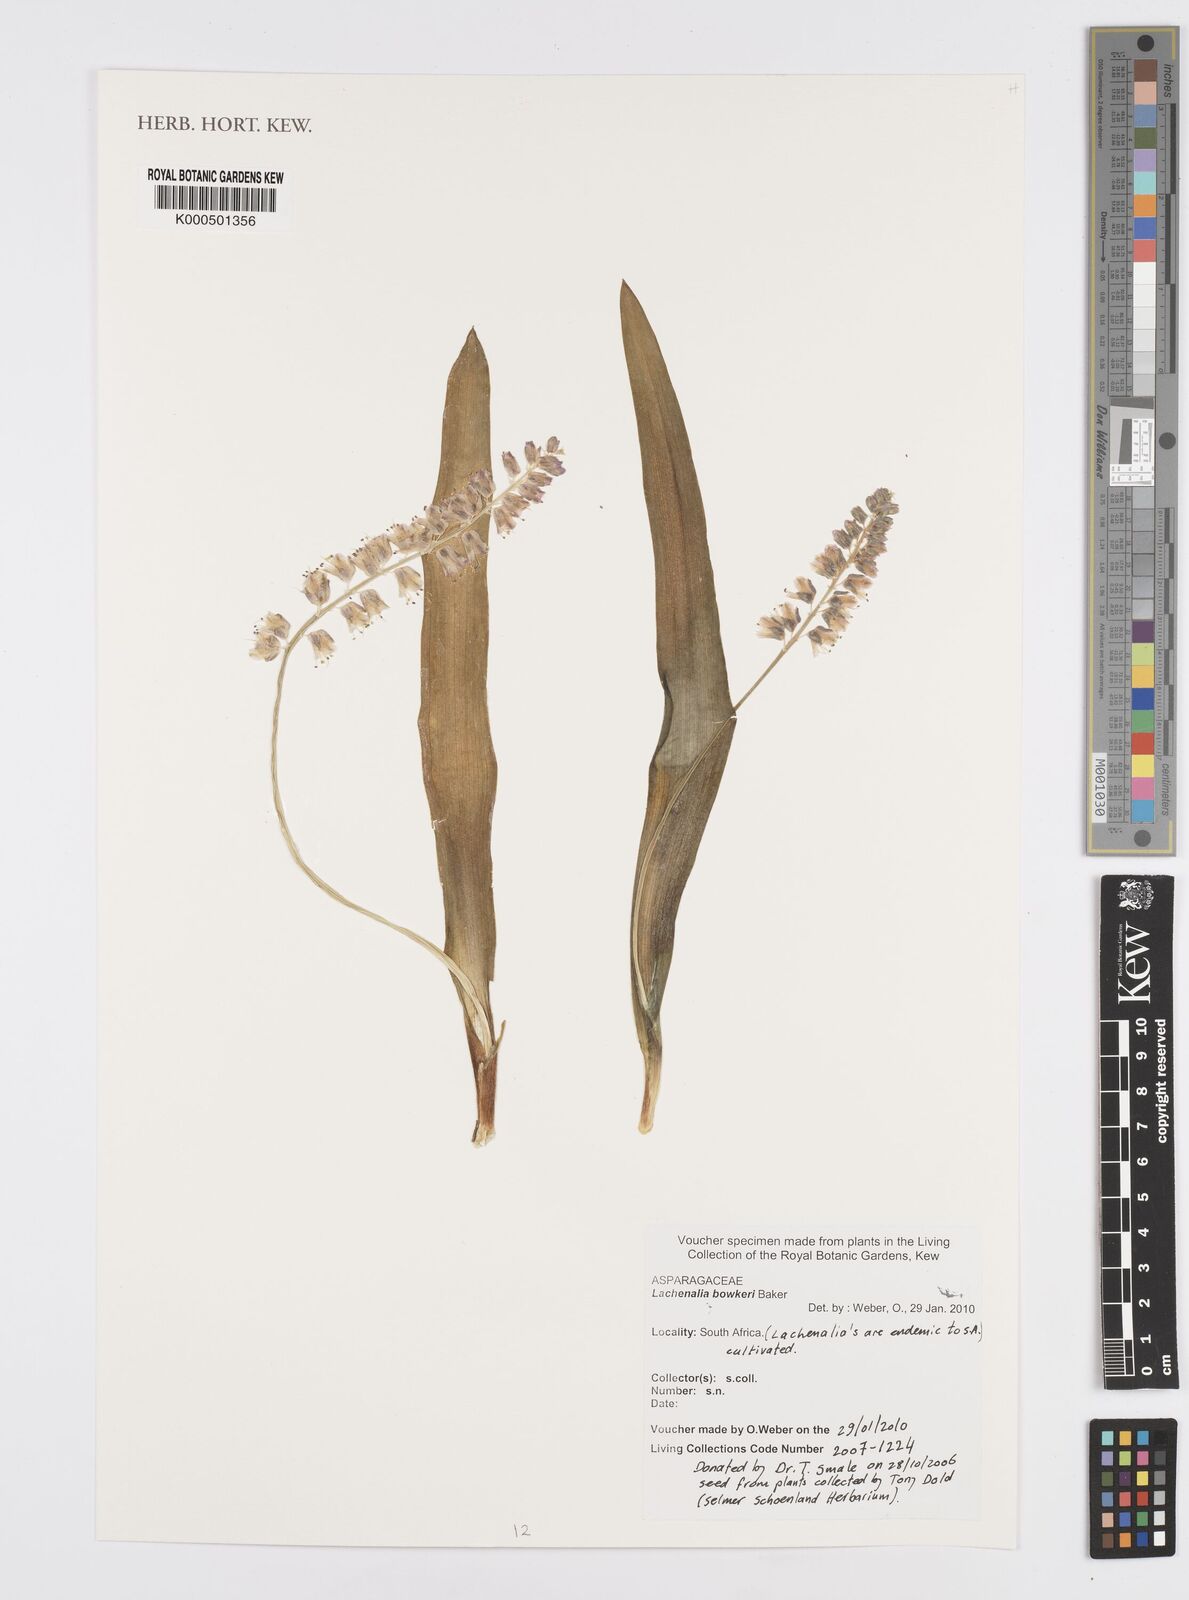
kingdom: Plantae
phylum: Tracheophyta
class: Liliopsida
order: Asparagales
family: Asparagaceae
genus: Lachenalia
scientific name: Lachenalia bowkeri
